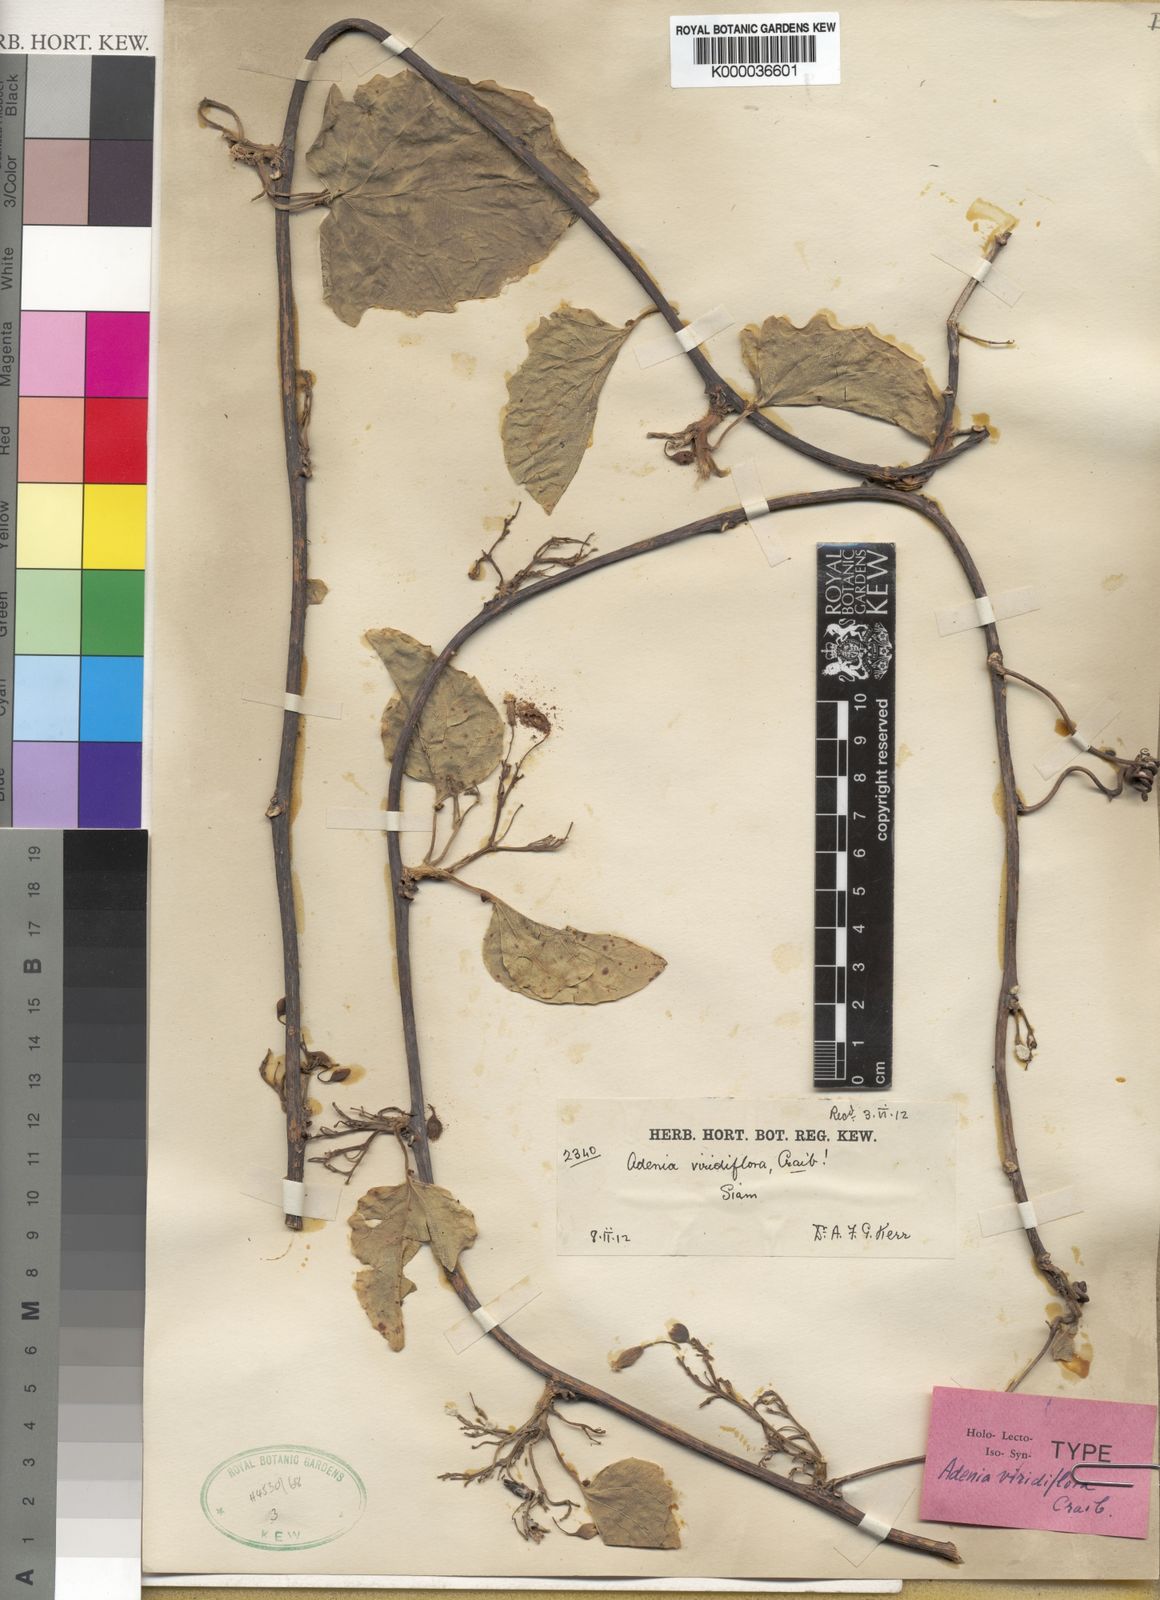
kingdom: Plantae
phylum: Tracheophyta
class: Magnoliopsida
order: Malpighiales
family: Passifloraceae
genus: Adenia
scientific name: Adenia viridiflora
